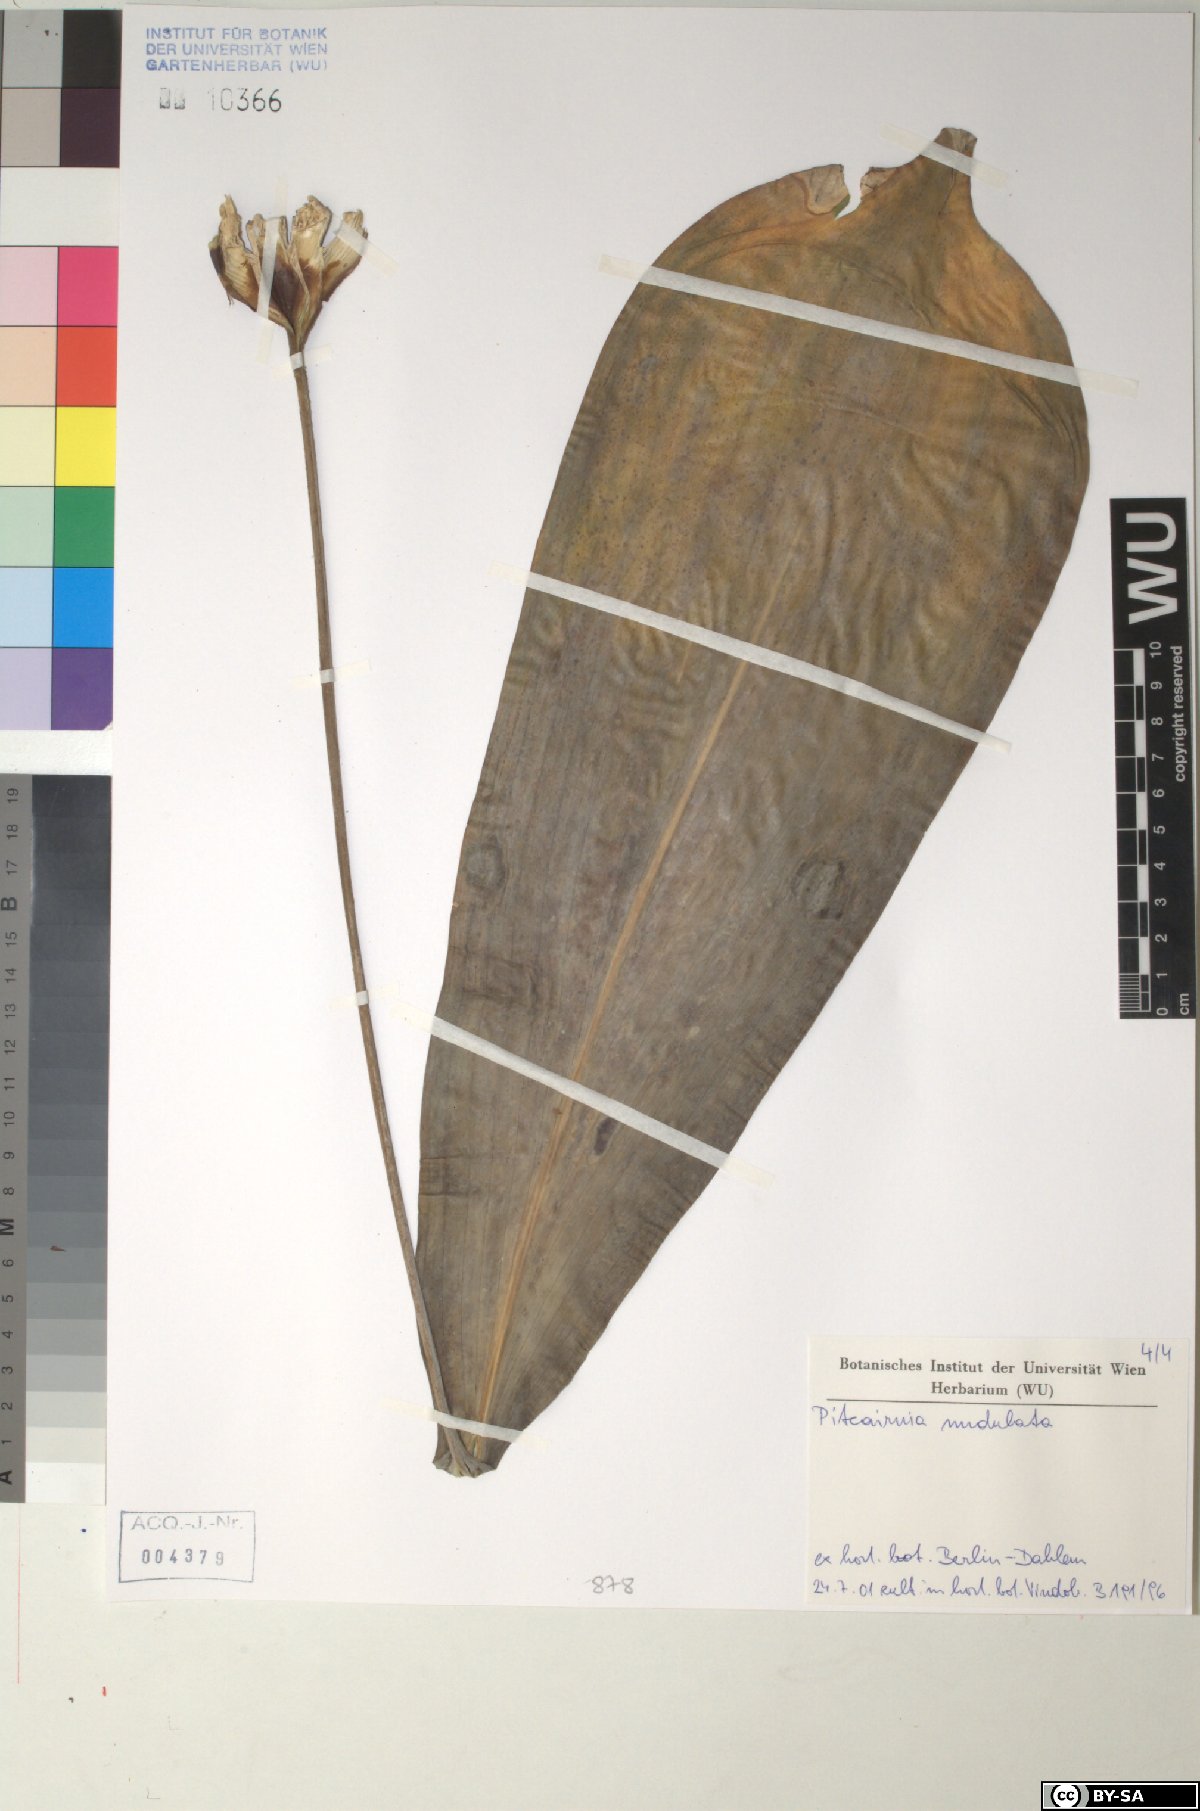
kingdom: Plantae
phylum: Tracheophyta
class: Liliopsida
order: Poales
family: Bromeliaceae
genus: Pitcairnia
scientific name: Pitcairnia
